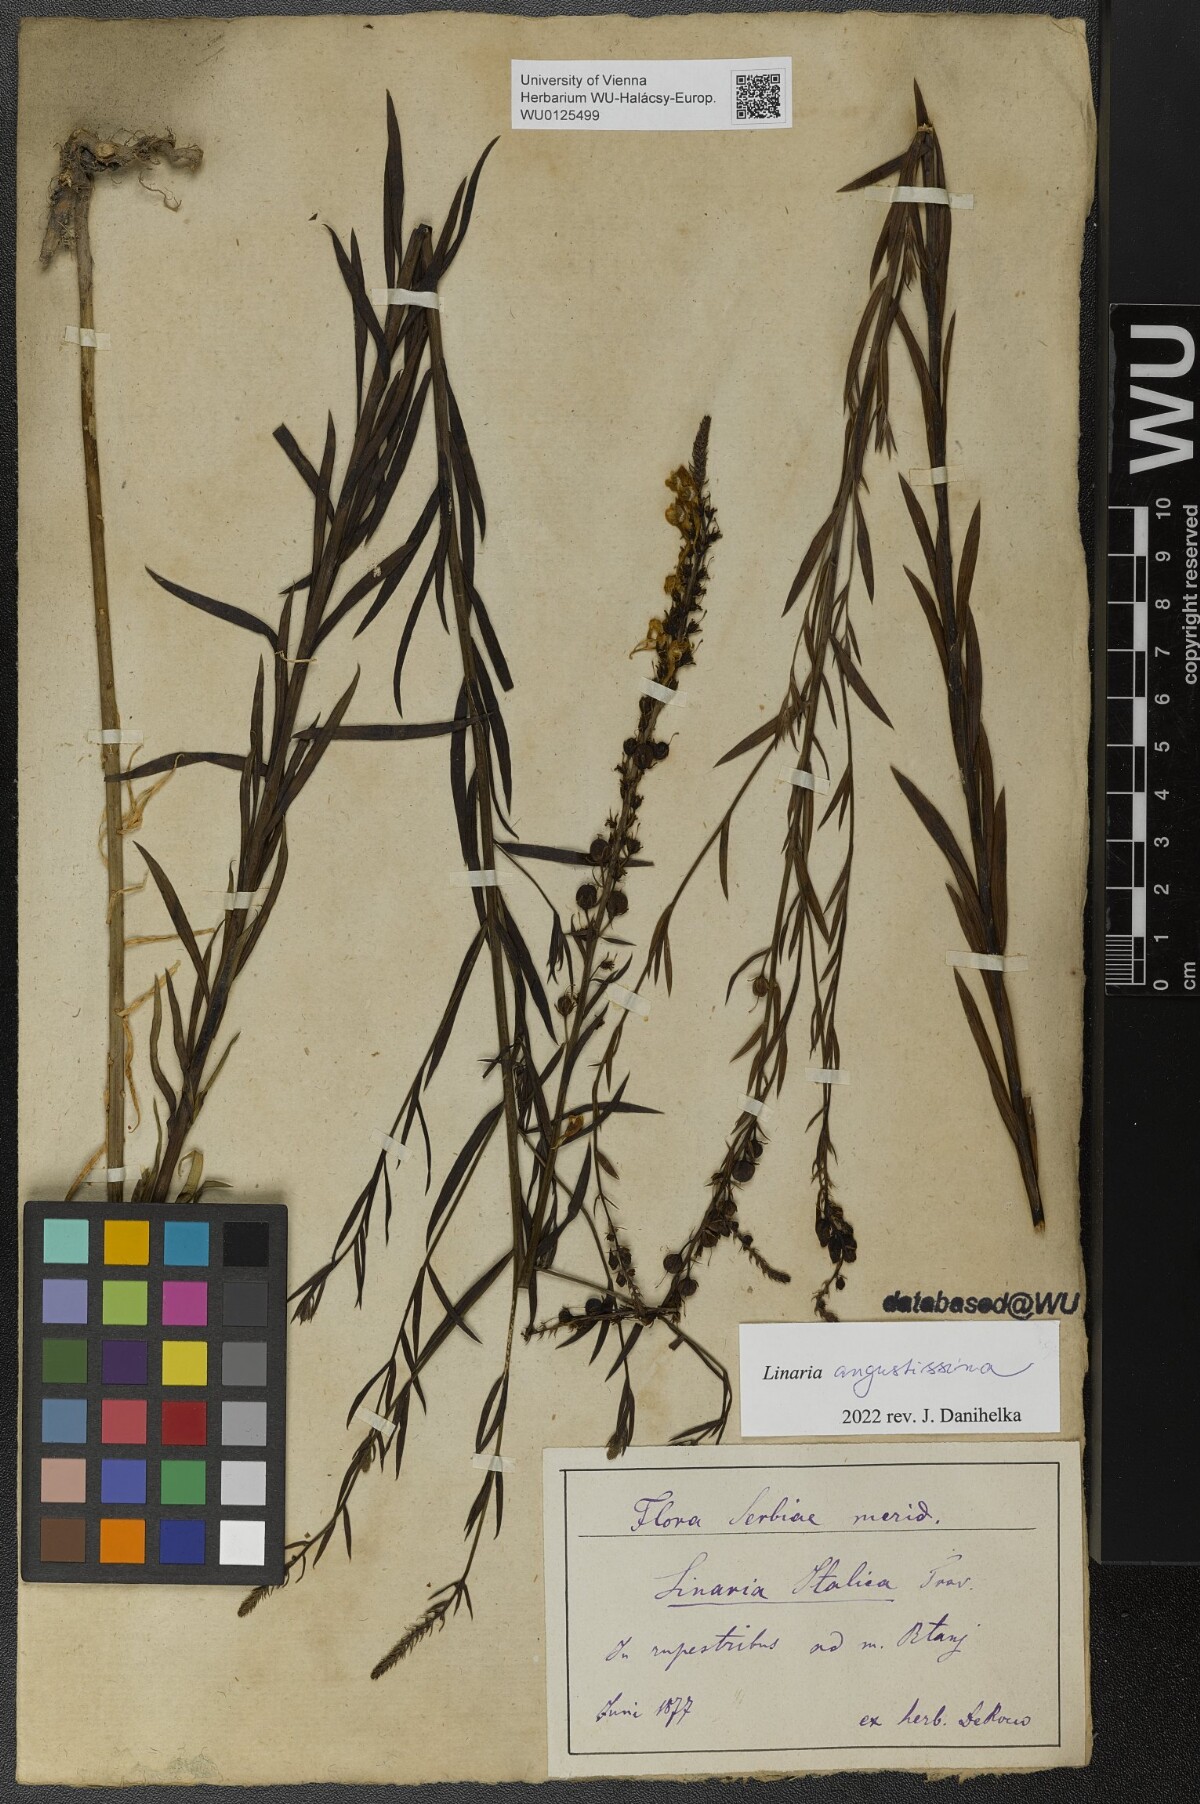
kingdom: Plantae
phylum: Tracheophyta
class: Magnoliopsida
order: Lamiales
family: Plantaginaceae
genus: Linaria
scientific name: Linaria angustissima
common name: Italian toadflax
